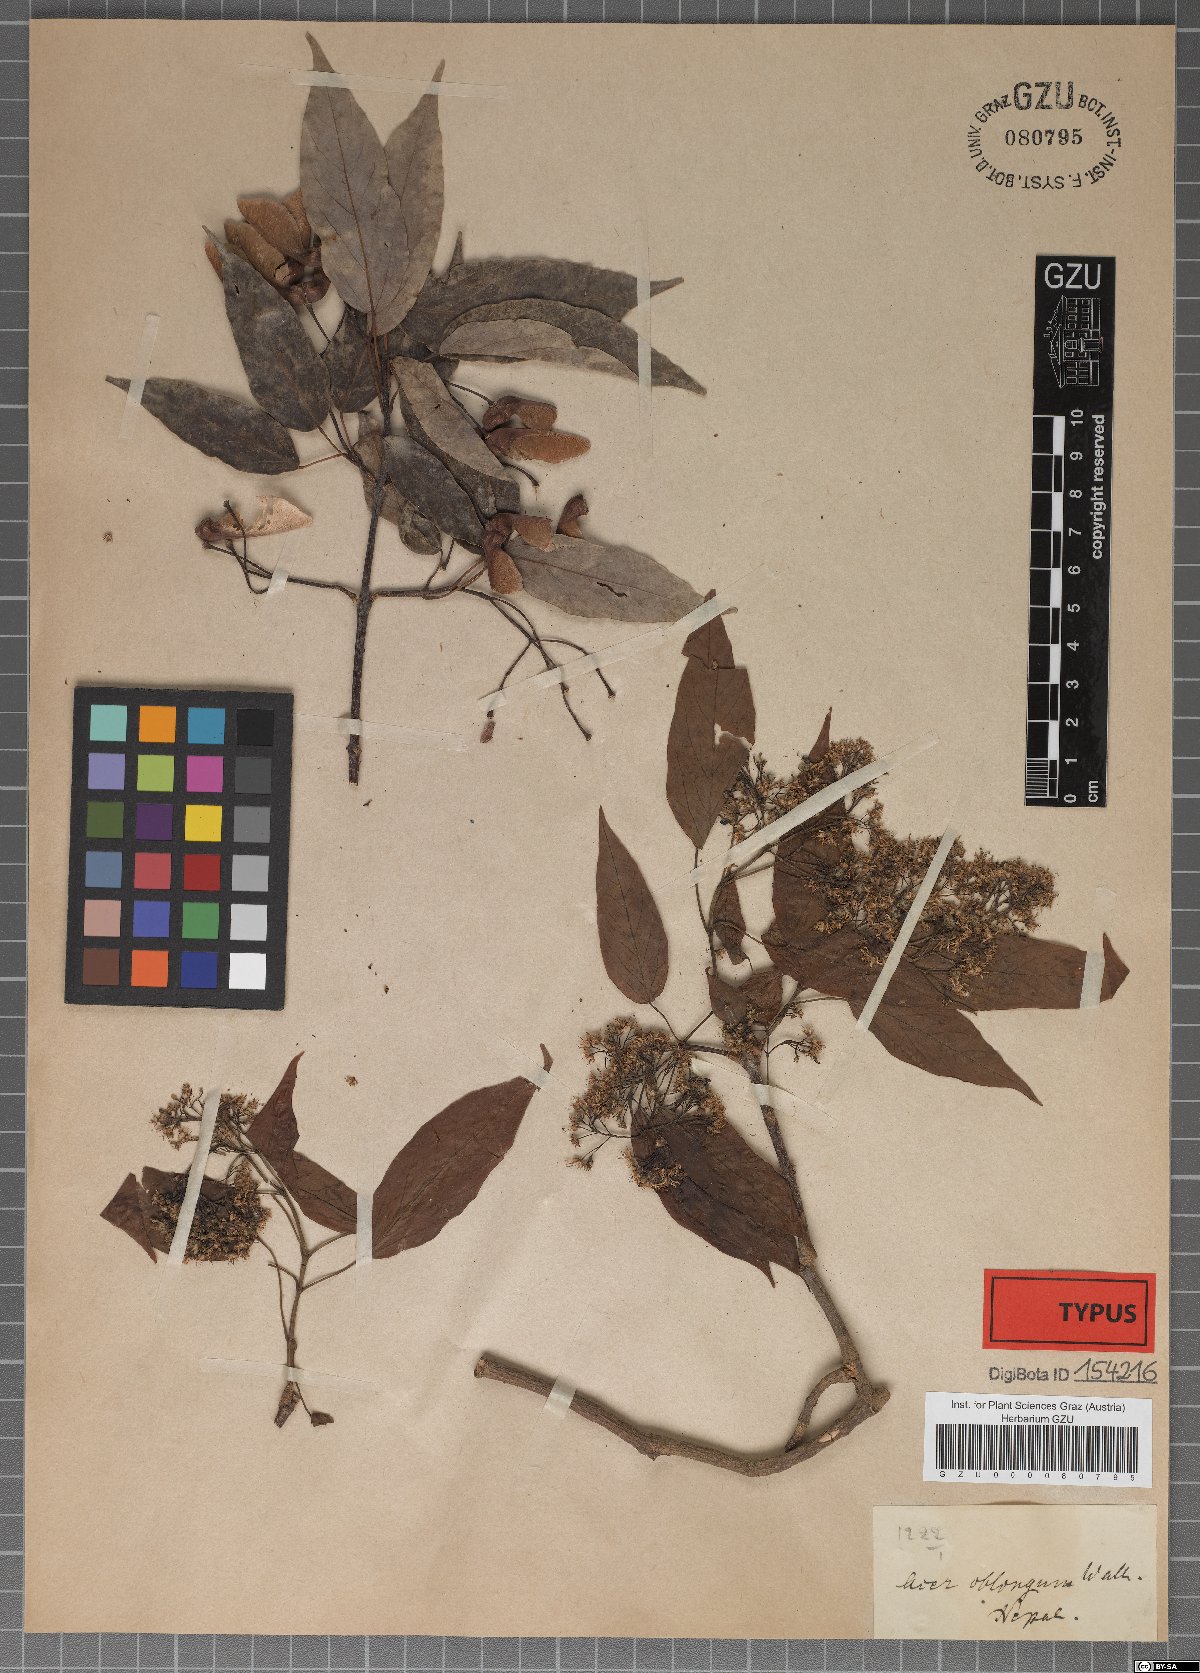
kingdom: Plantae
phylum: Tracheophyta
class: Magnoliopsida
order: Sapindales
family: Sapindaceae
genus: Acer
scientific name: Acer oblongum
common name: Himalayan maple
